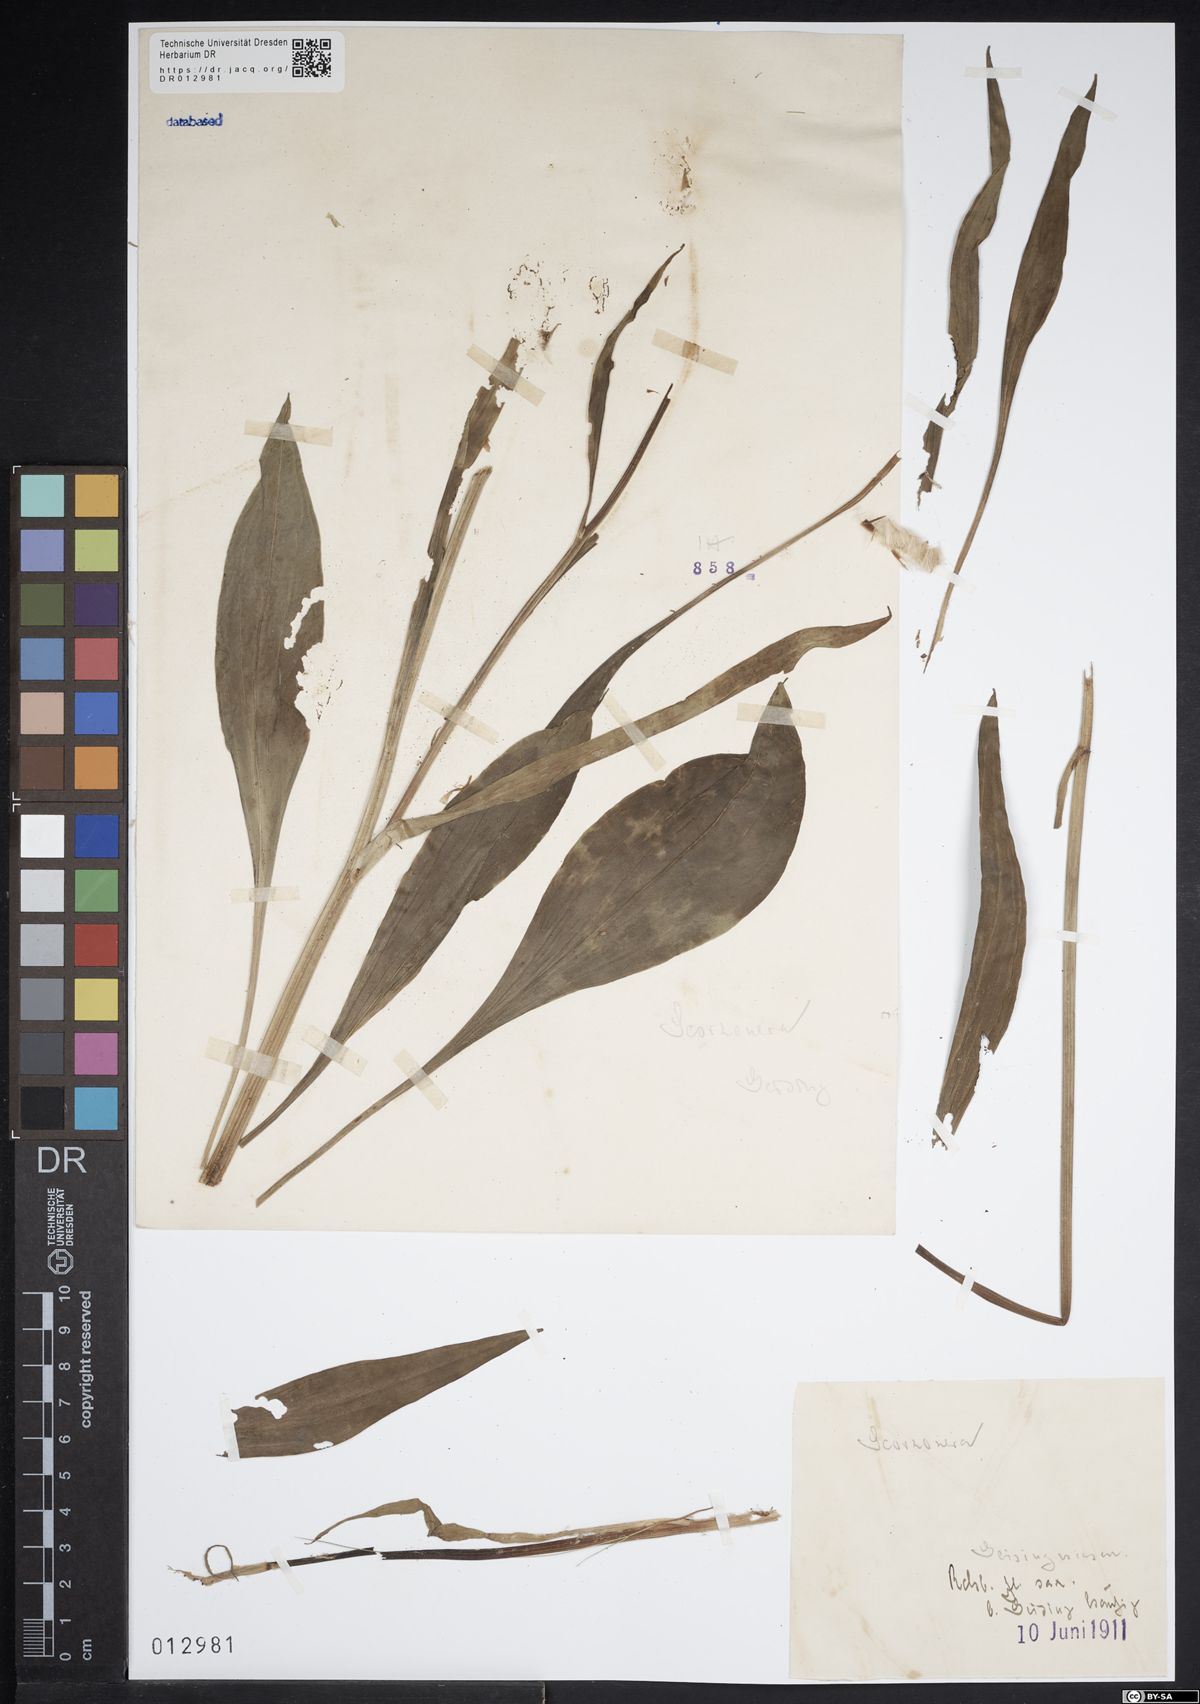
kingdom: Plantae
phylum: Tracheophyta
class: Magnoliopsida
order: Asterales
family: Asteraceae
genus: Scorzonera
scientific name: Scorzonera humilis
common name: Viper's-grass
